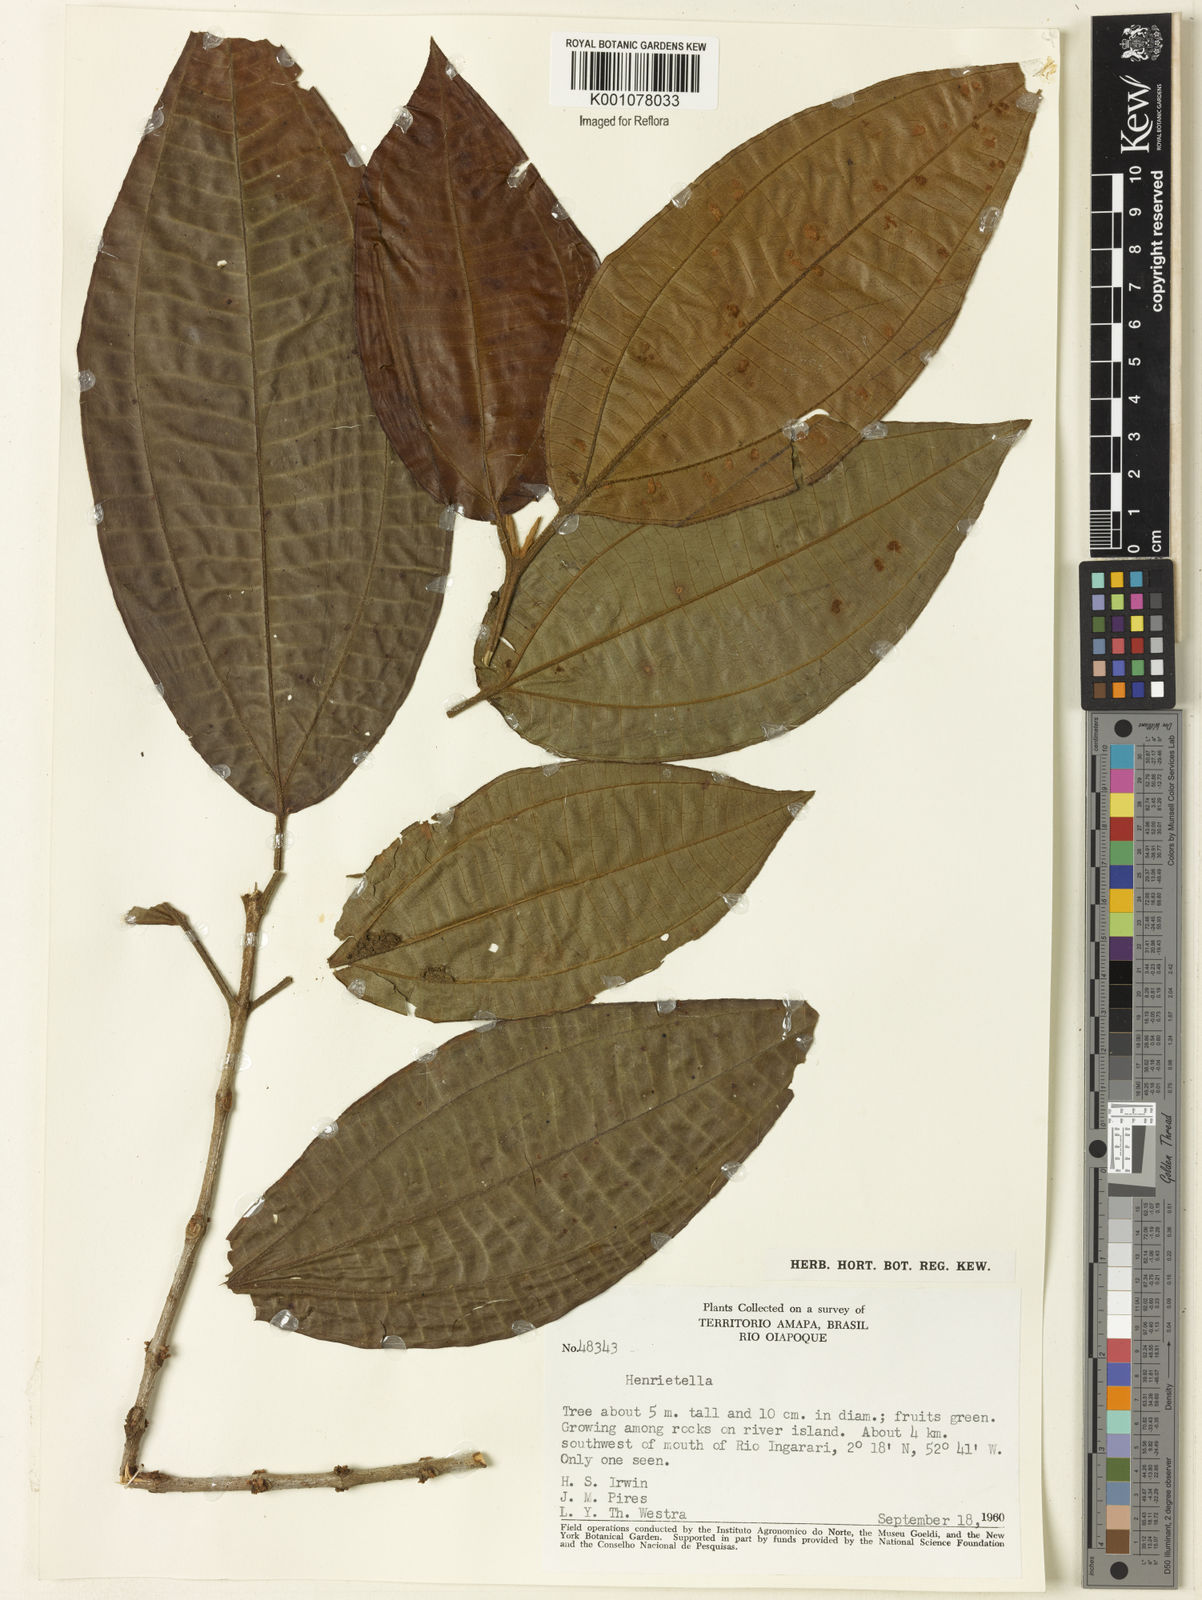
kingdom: Plantae
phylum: Tracheophyta
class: Magnoliopsida
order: Myrtales
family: Melastomataceae
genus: Henriettea
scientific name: Henriettea
